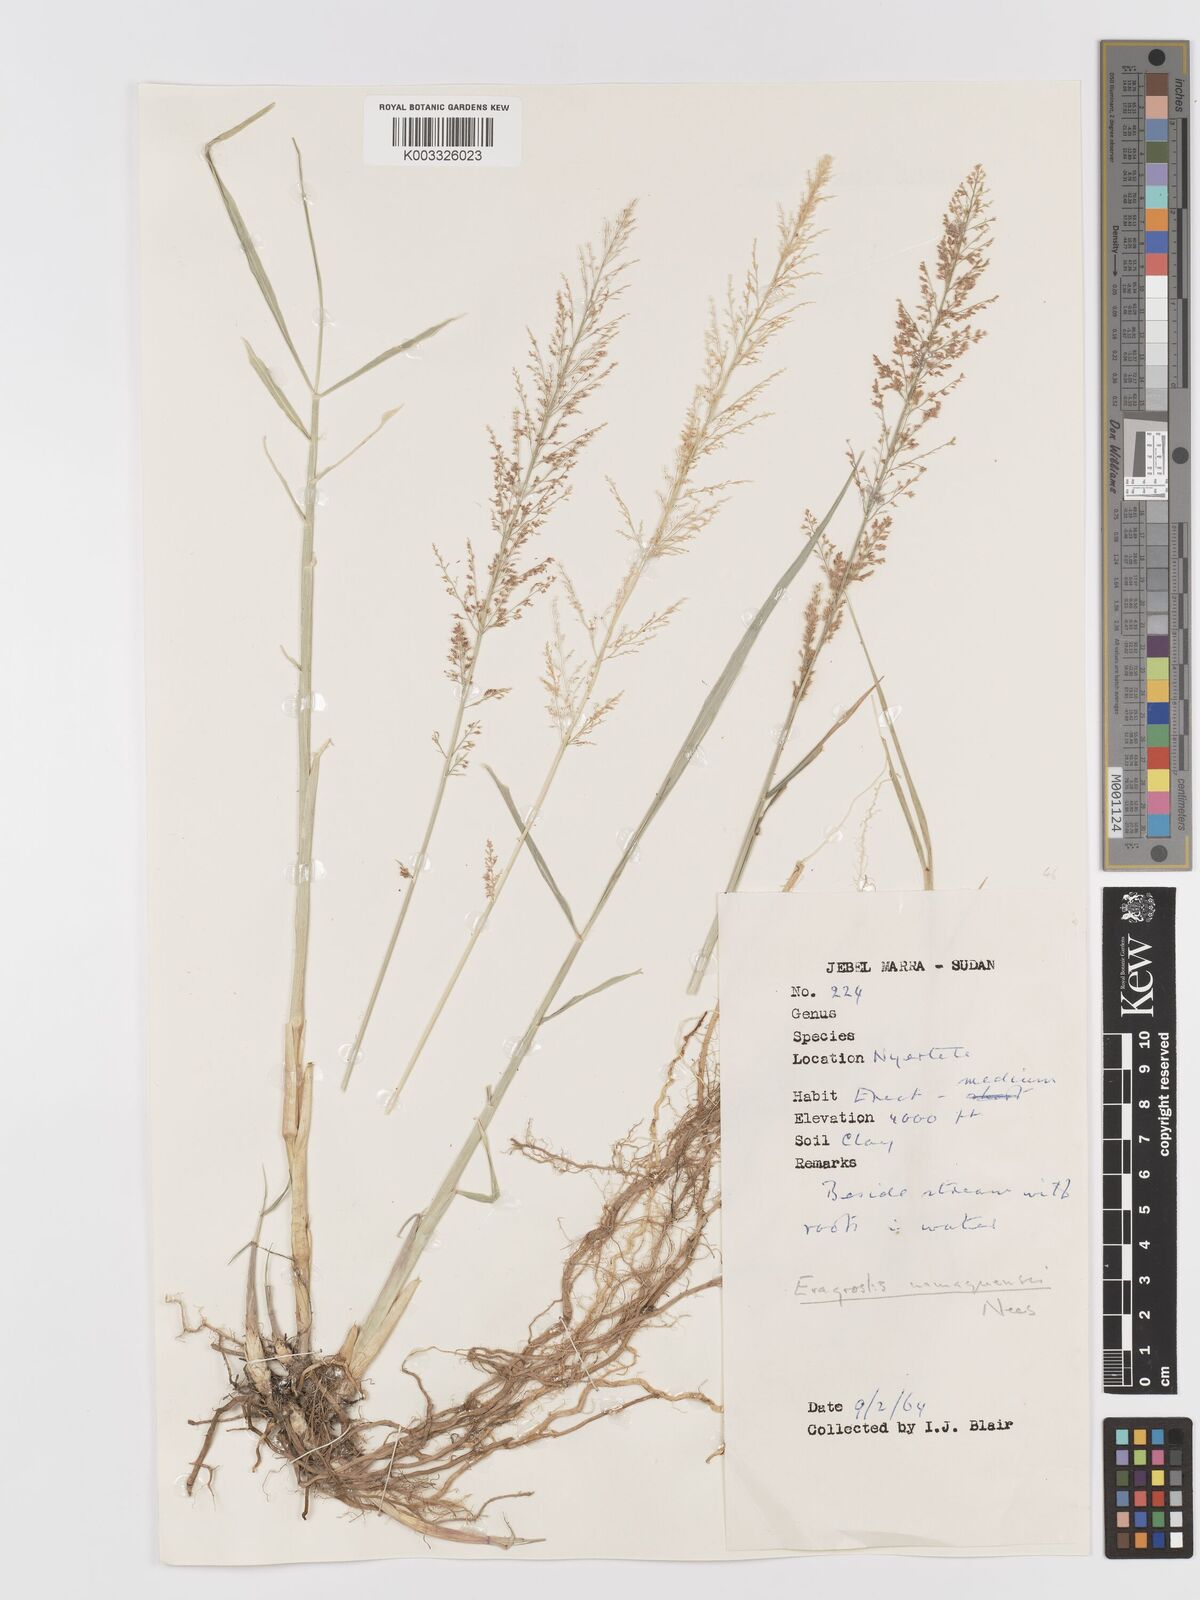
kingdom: Plantae
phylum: Tracheophyta
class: Liliopsida
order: Poales
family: Poaceae
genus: Eragrostis
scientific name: Eragrostis japonica
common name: Pond lovegrass
